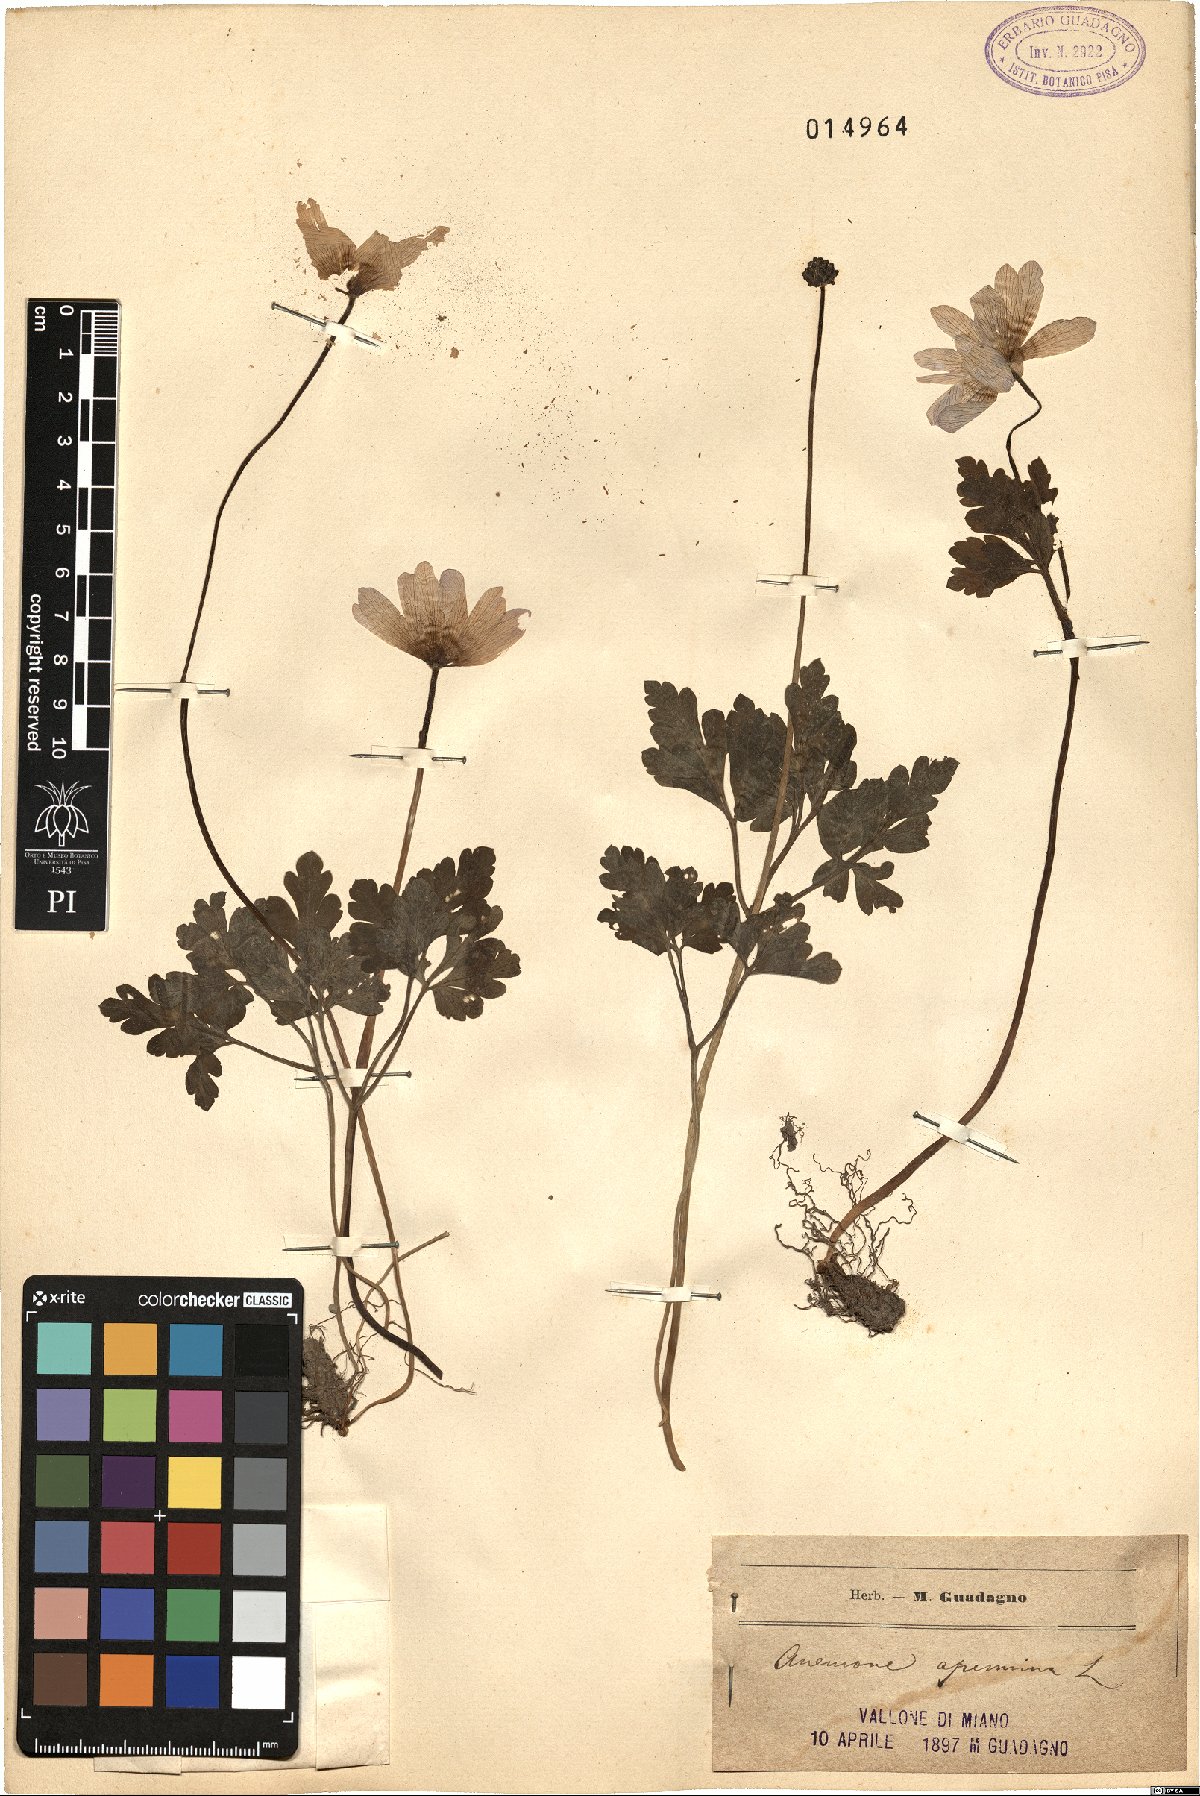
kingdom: Plantae
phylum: Tracheophyta
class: Magnoliopsida
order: Ranunculales
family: Ranunculaceae
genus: Anemone
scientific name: Anemone apennina
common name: Blue anemone
